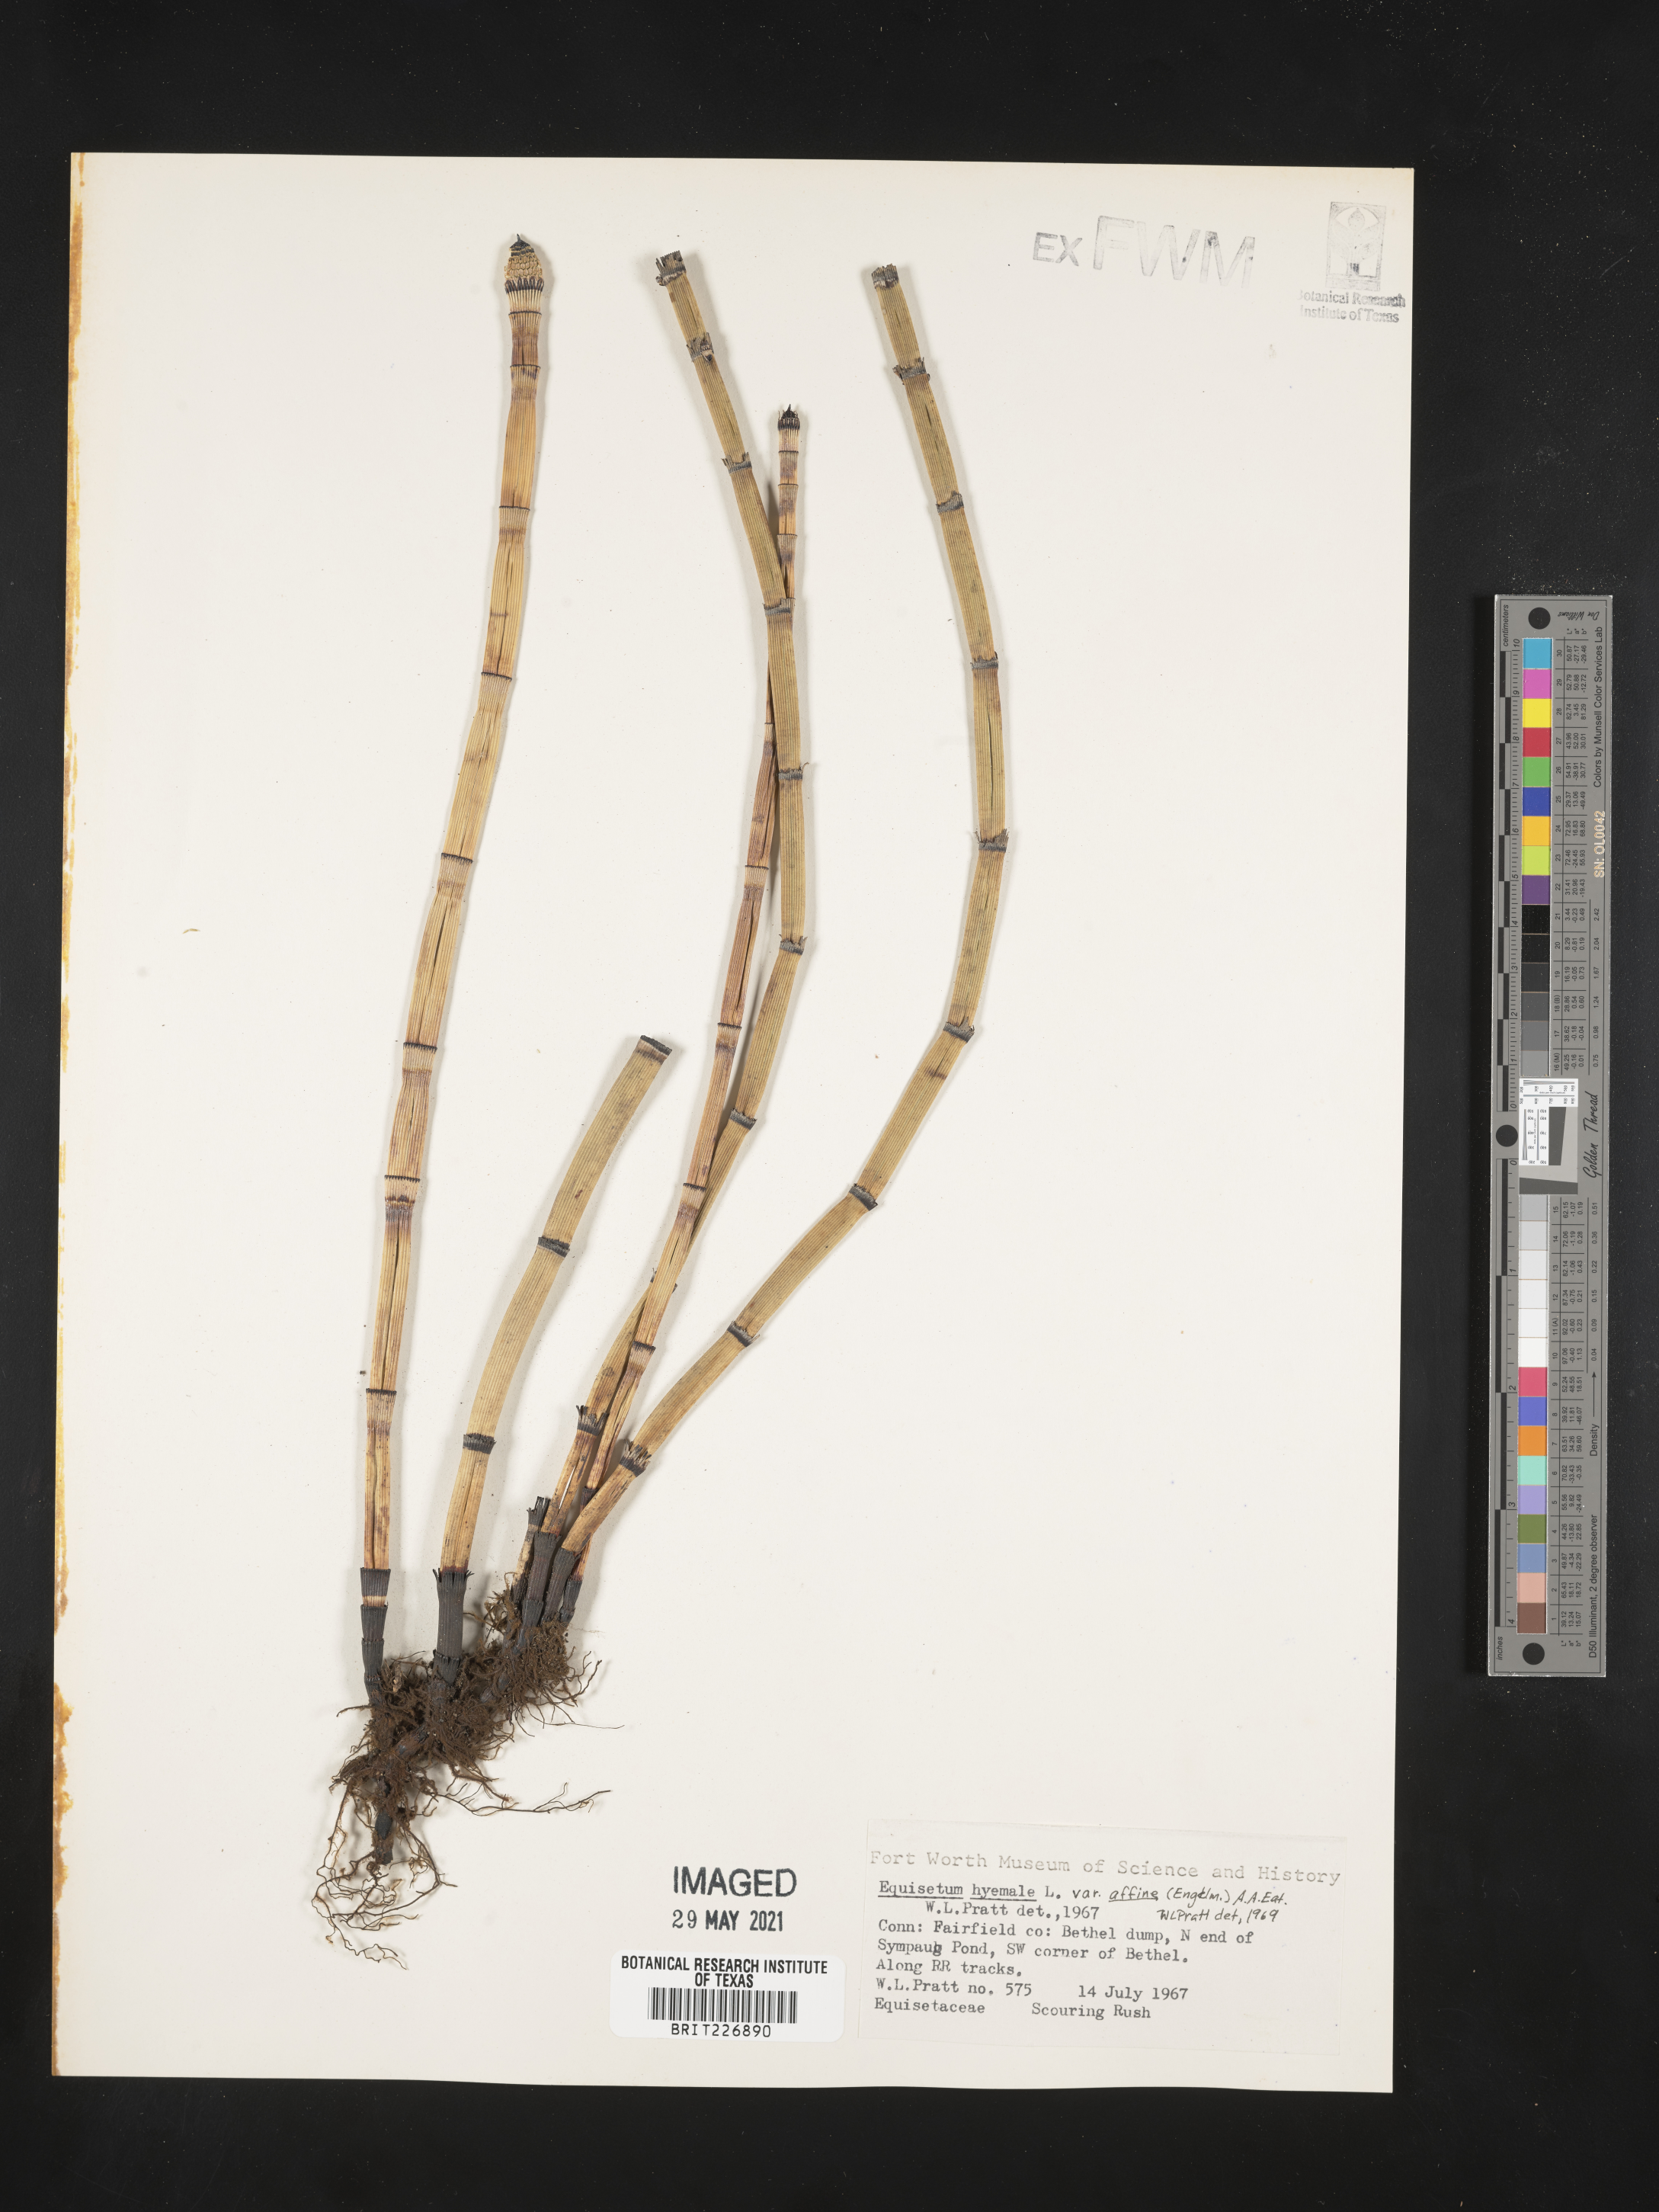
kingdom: Plantae
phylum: Tracheophyta
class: Polypodiopsida
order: Equisetales
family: Equisetaceae
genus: Equisetum
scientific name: Equisetum praealtum
